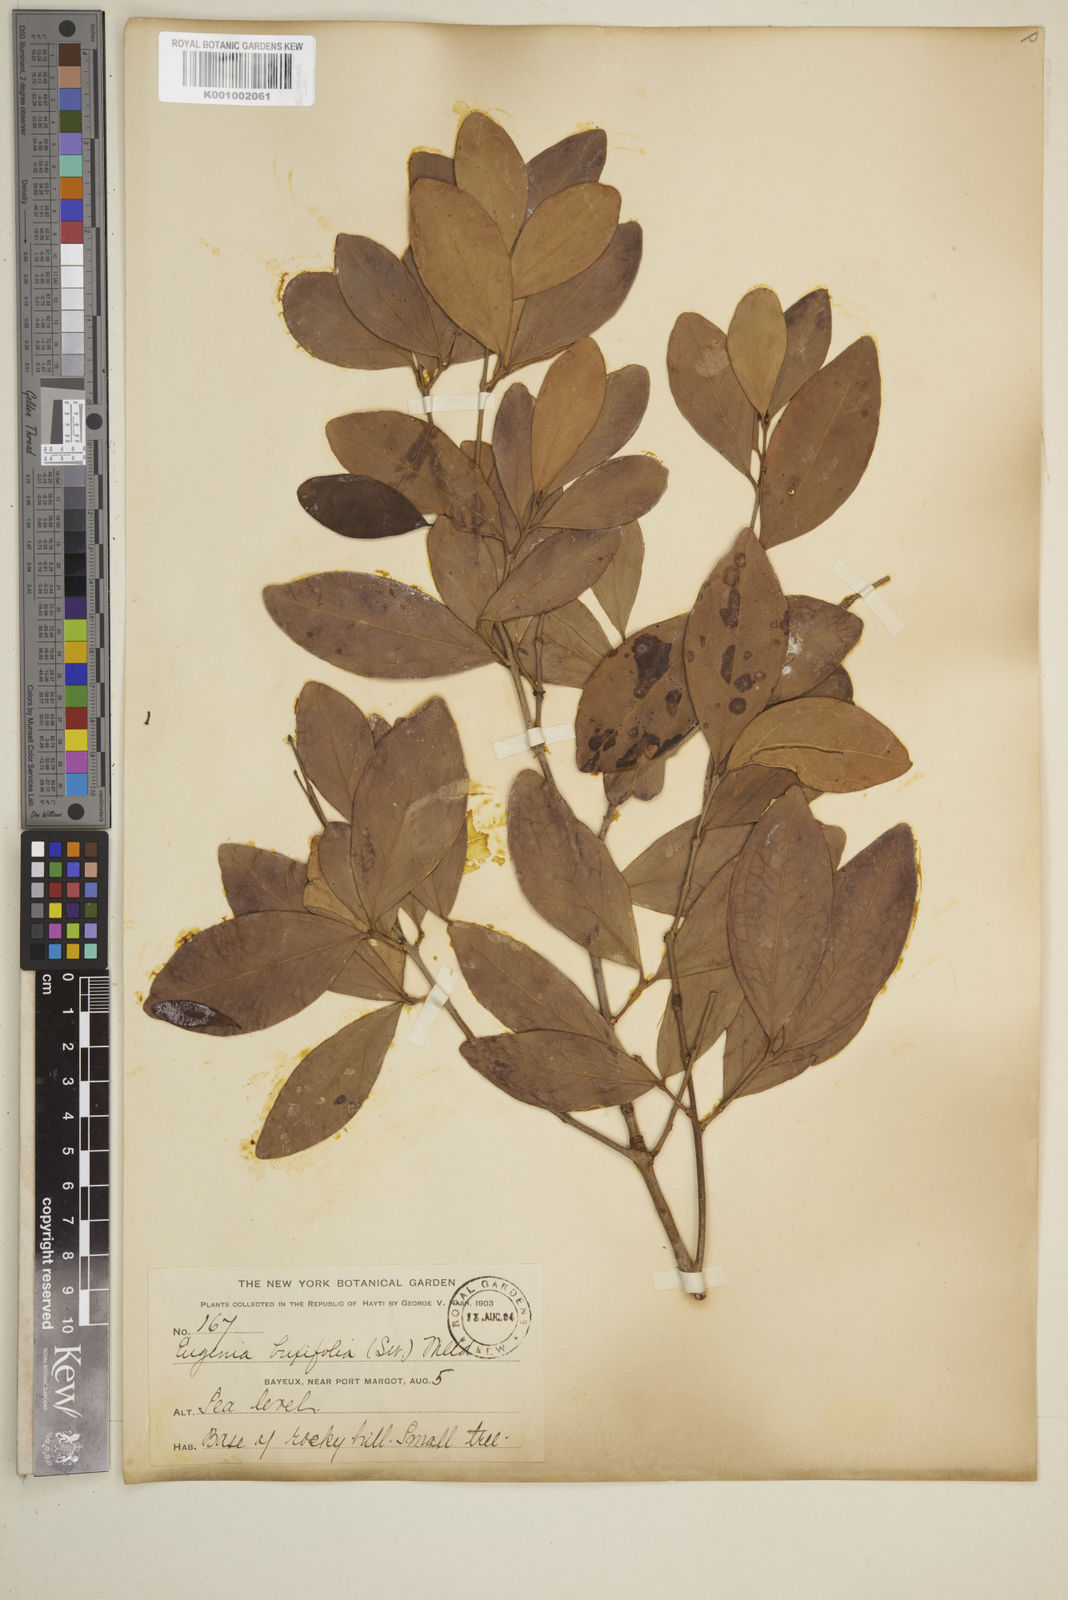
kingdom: Plantae
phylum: Tracheophyta
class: Magnoliopsida
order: Myrtales
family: Myrtaceae
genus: Eugenia
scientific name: Eugenia buxifolia
